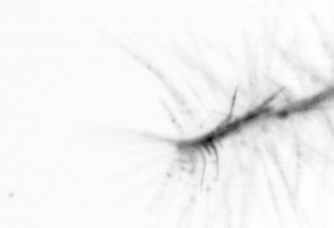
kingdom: Chromista
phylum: Ochrophyta
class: Bacillariophyceae
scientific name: Bacillariophyceae
